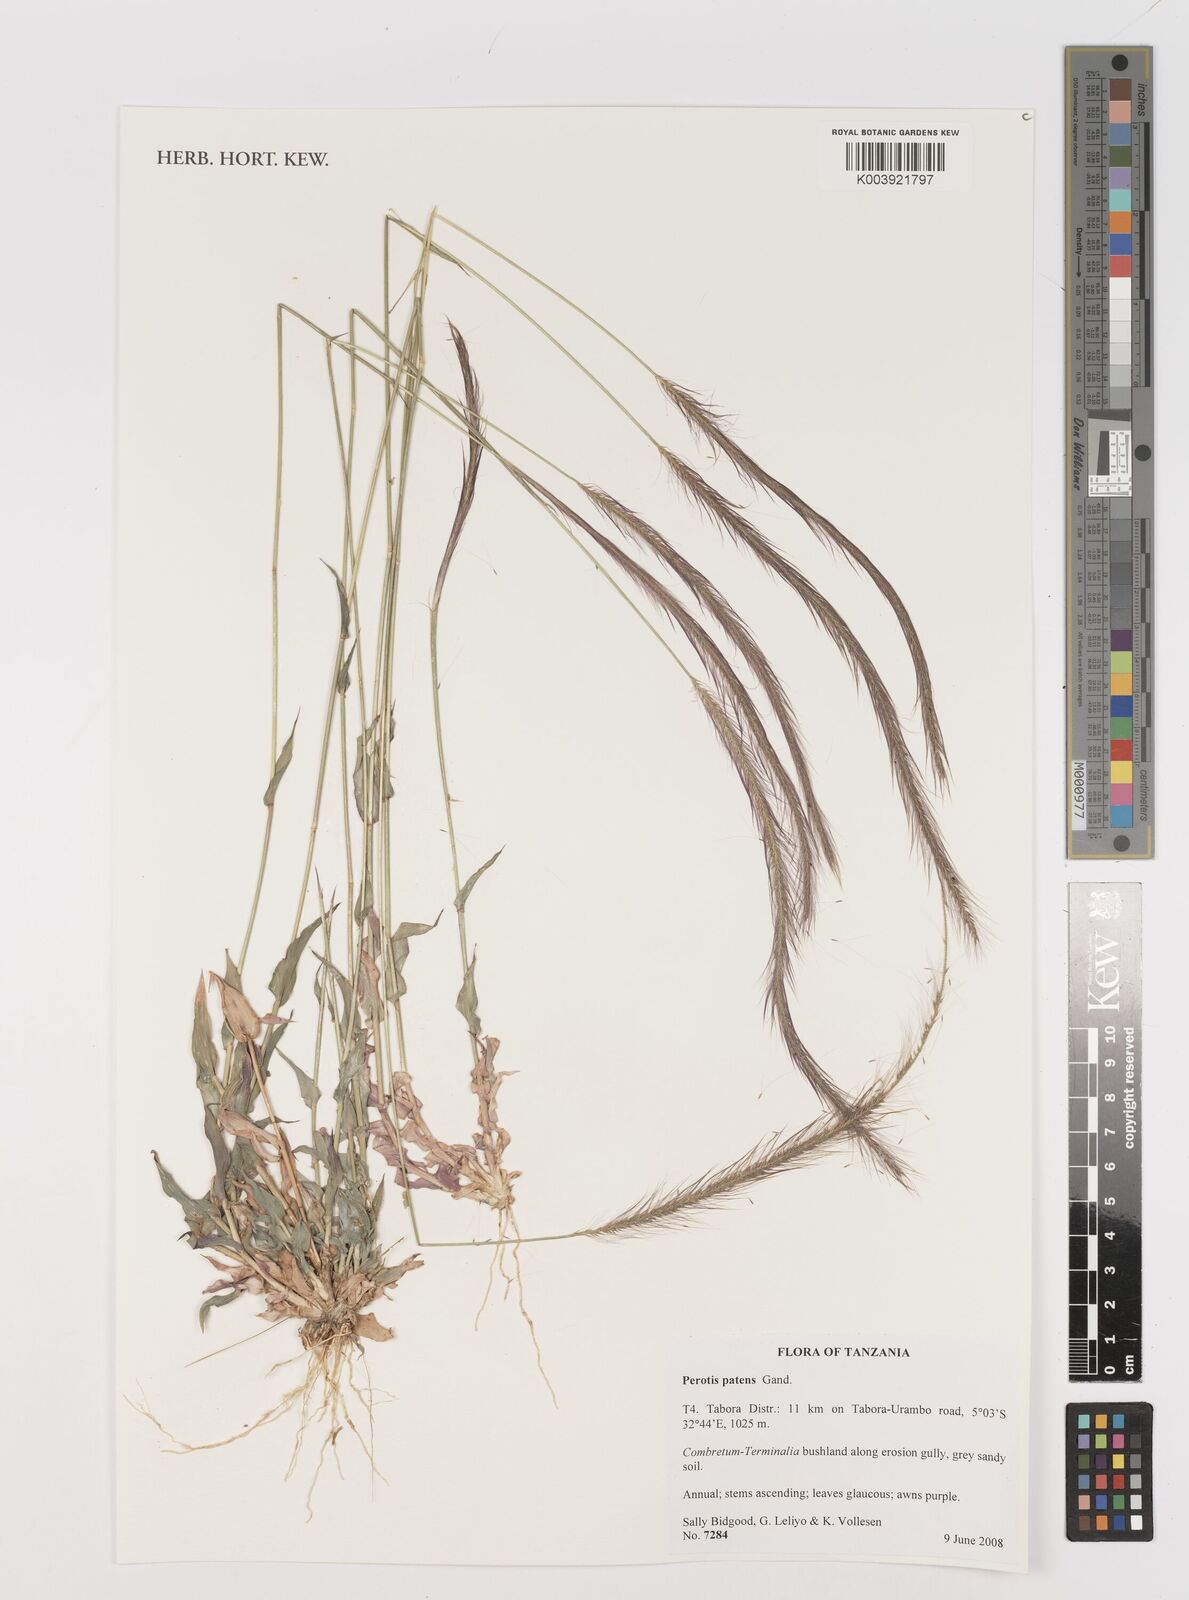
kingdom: Plantae
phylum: Tracheophyta
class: Liliopsida
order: Poales
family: Poaceae
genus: Perotis
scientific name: Perotis patens
